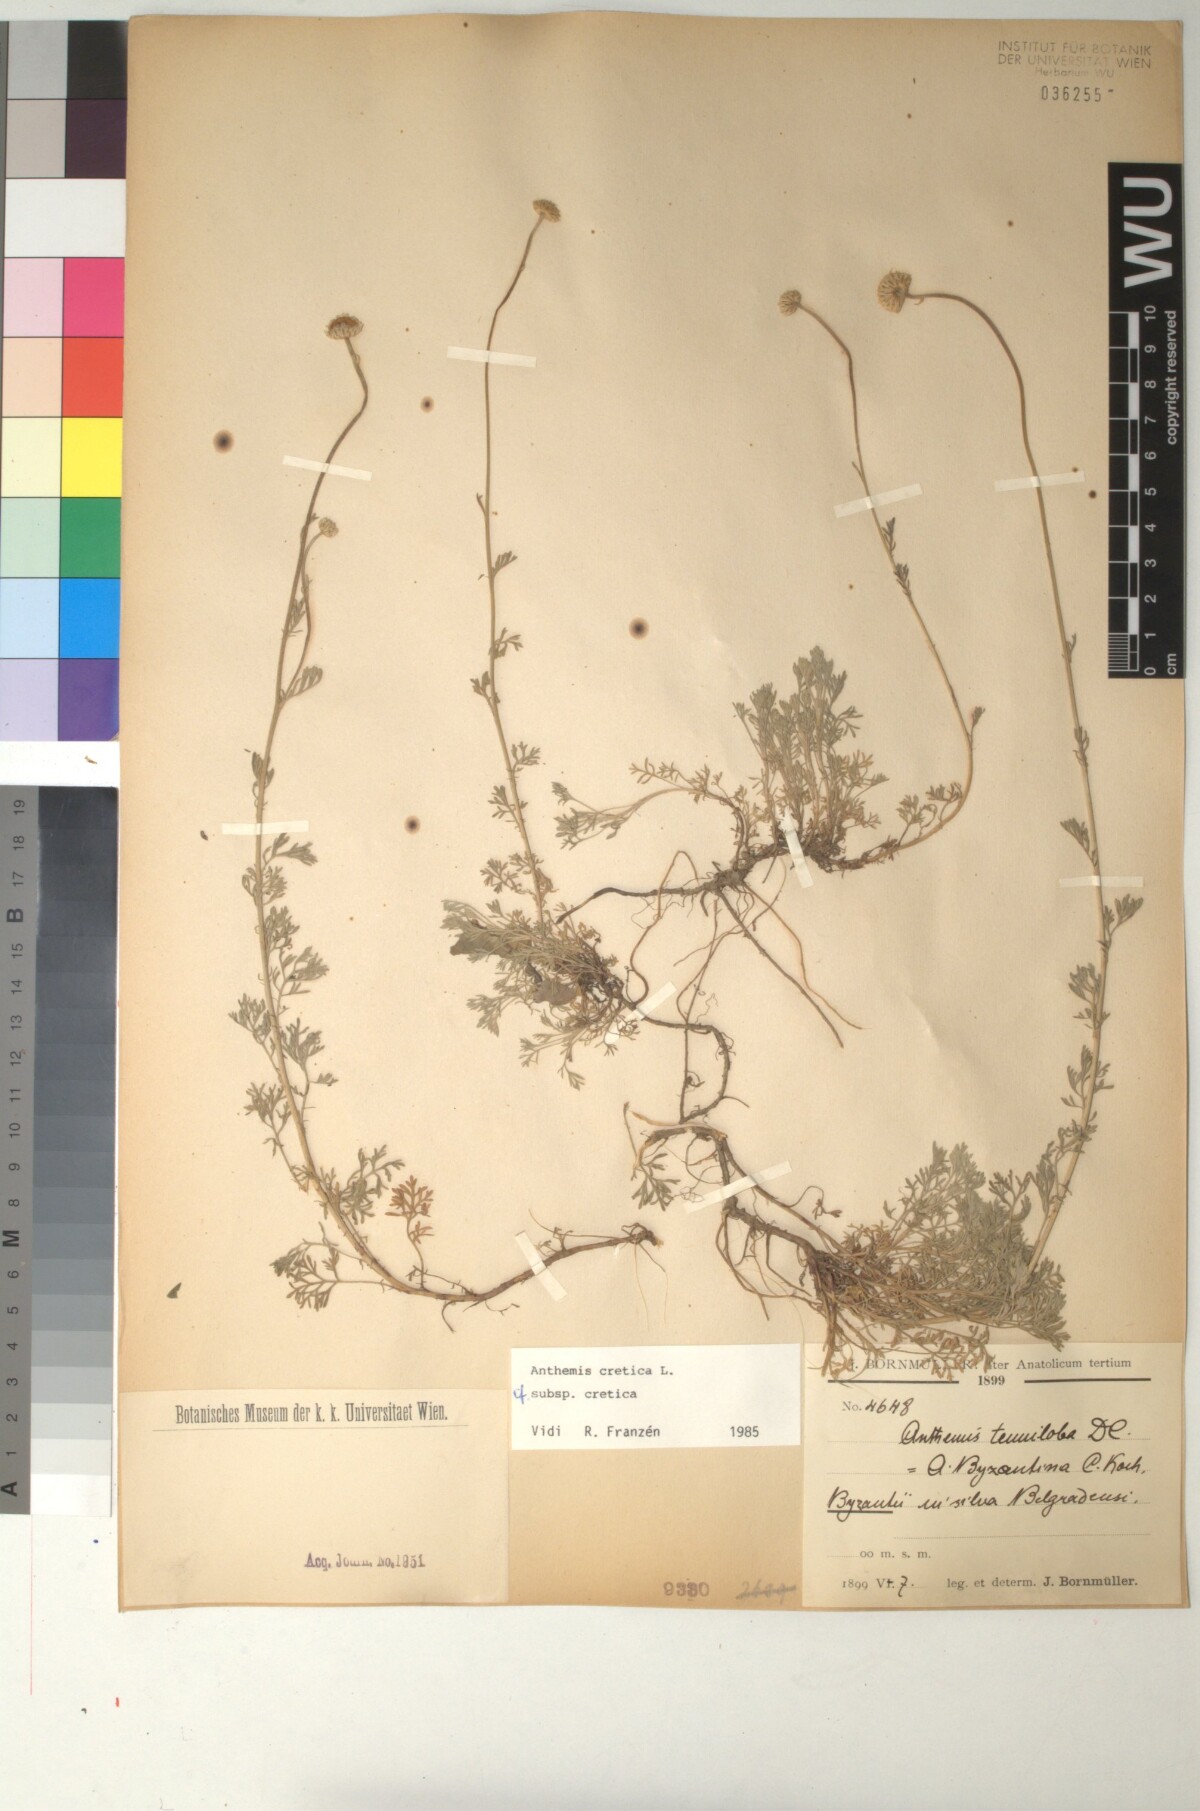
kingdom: Plantae
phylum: Tracheophyta
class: Magnoliopsida
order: Asterales
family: Asteraceae
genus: Anthemis
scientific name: Anthemis cretica
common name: Mountain dog-daisy
